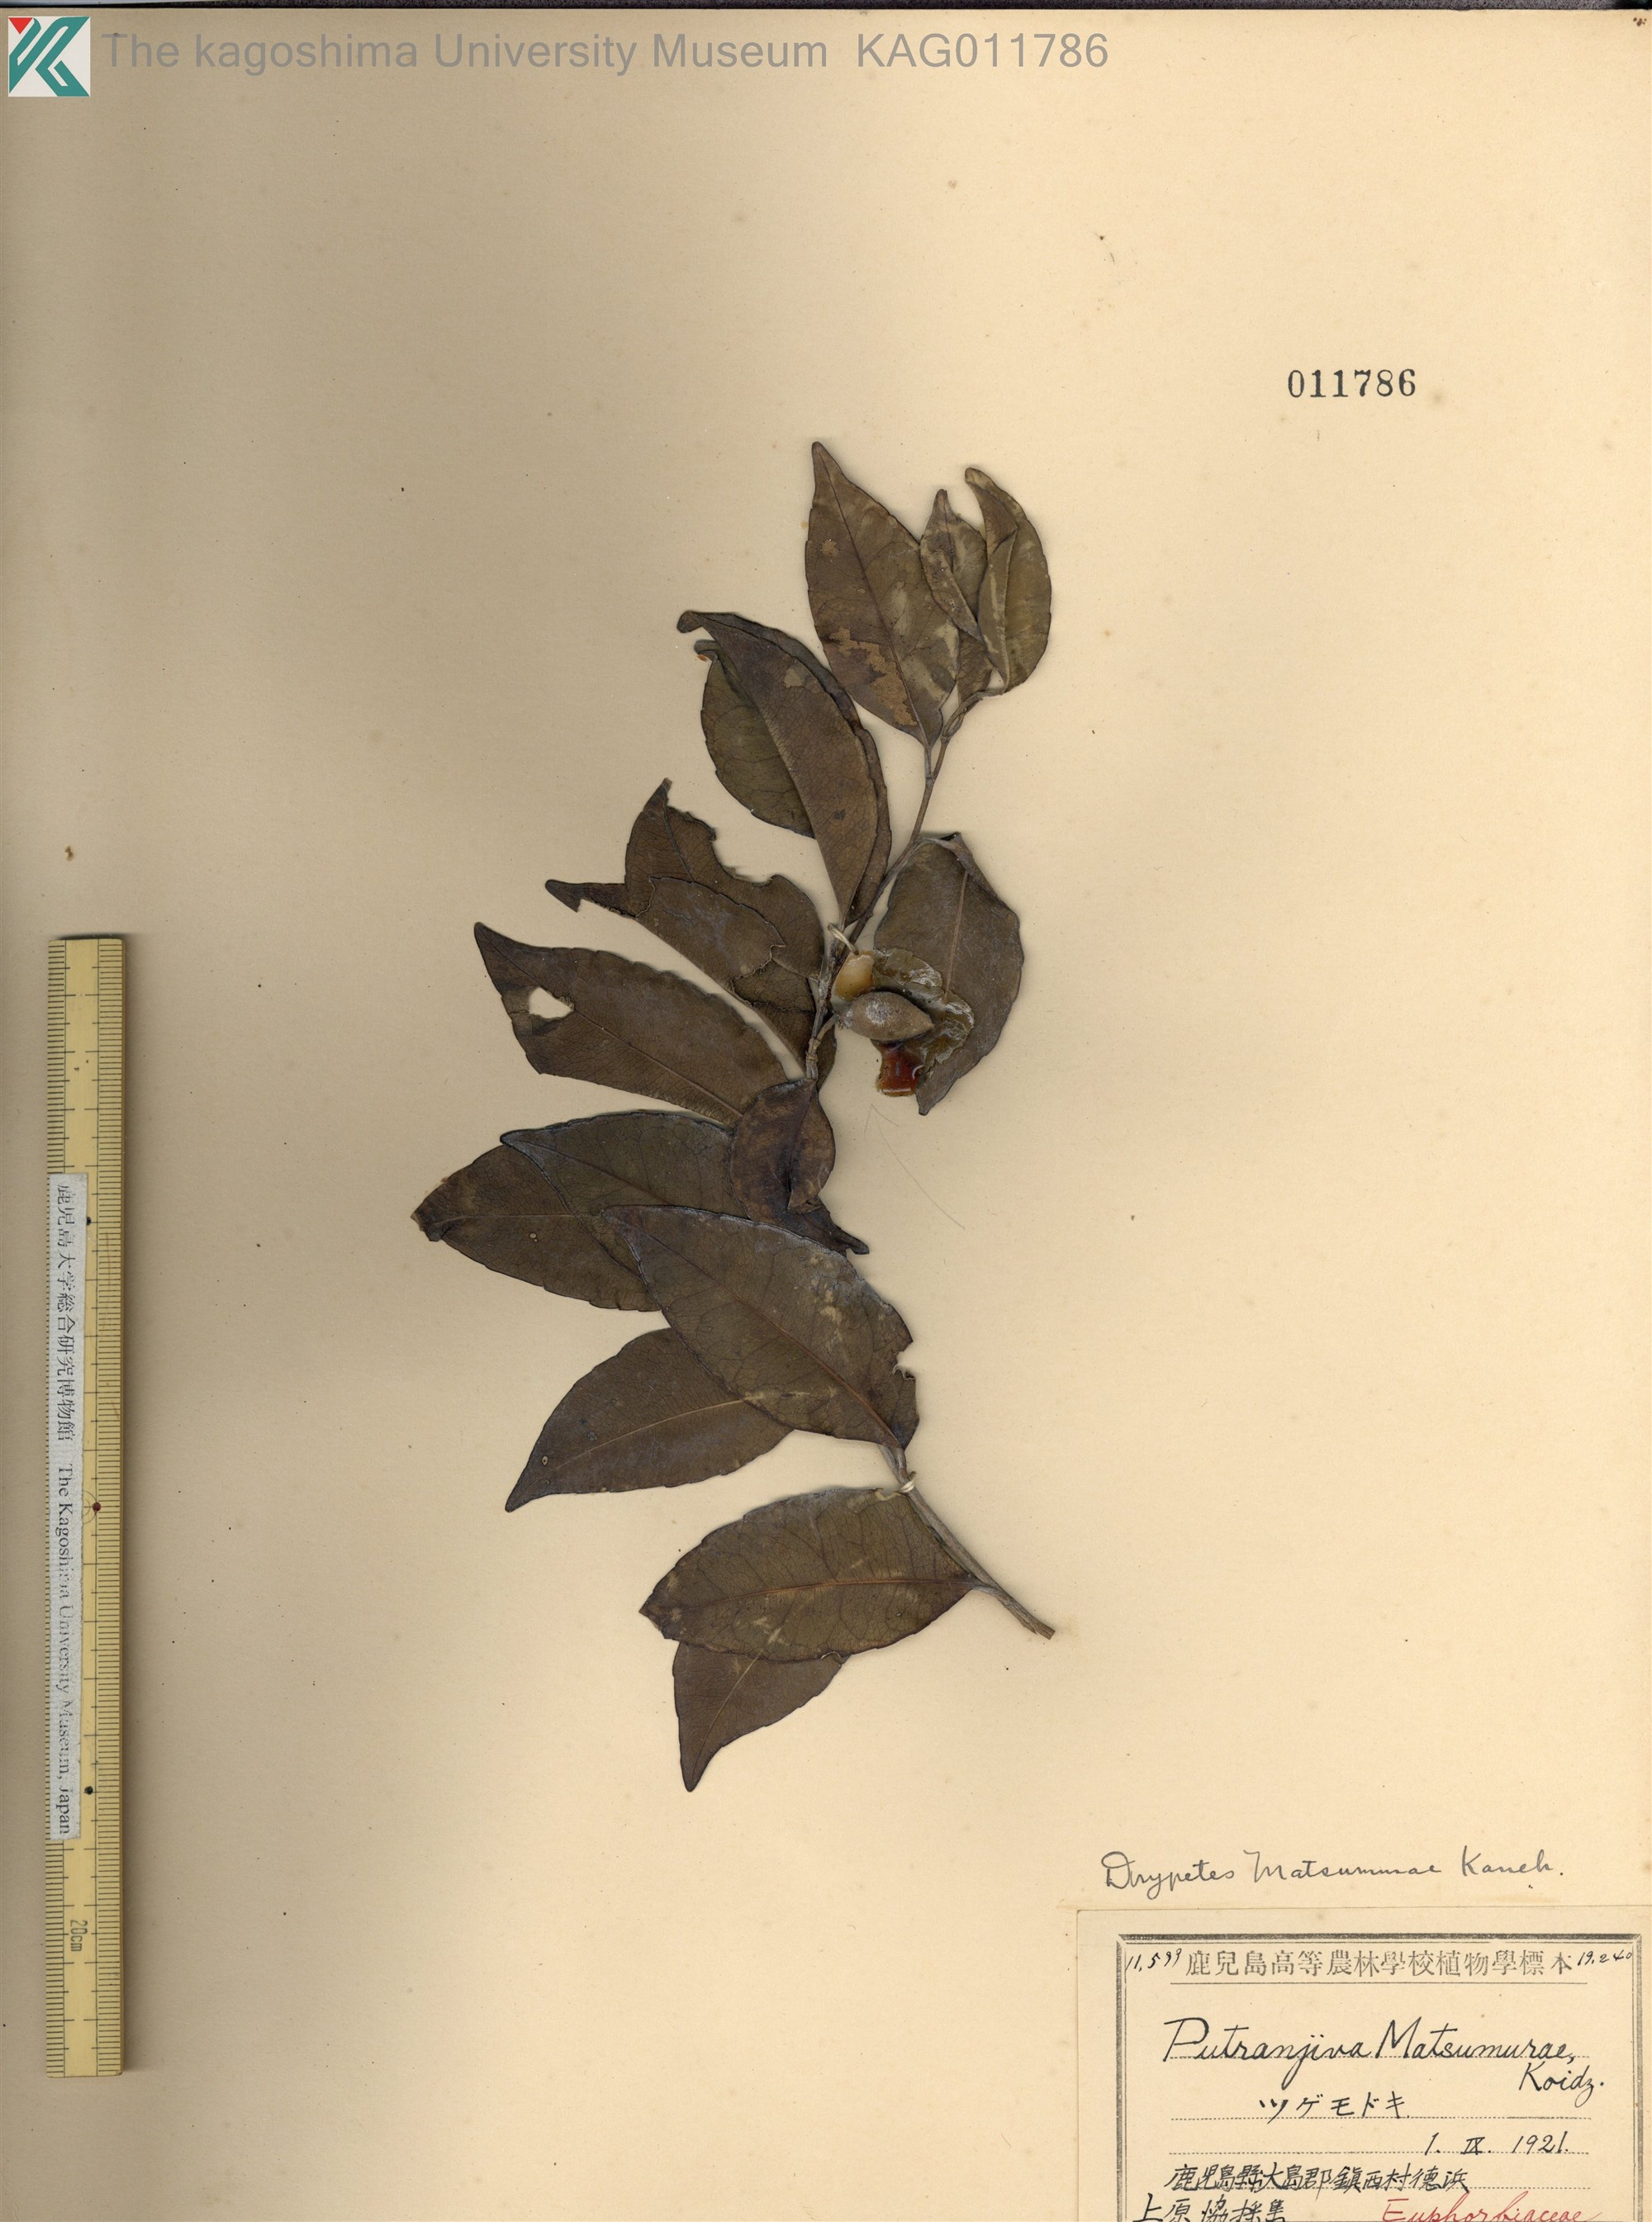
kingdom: Plantae
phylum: Tracheophyta
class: Magnoliopsida
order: Malpighiales
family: Putranjivaceae
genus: Putranjiva
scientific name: Putranjiva matsumurae
